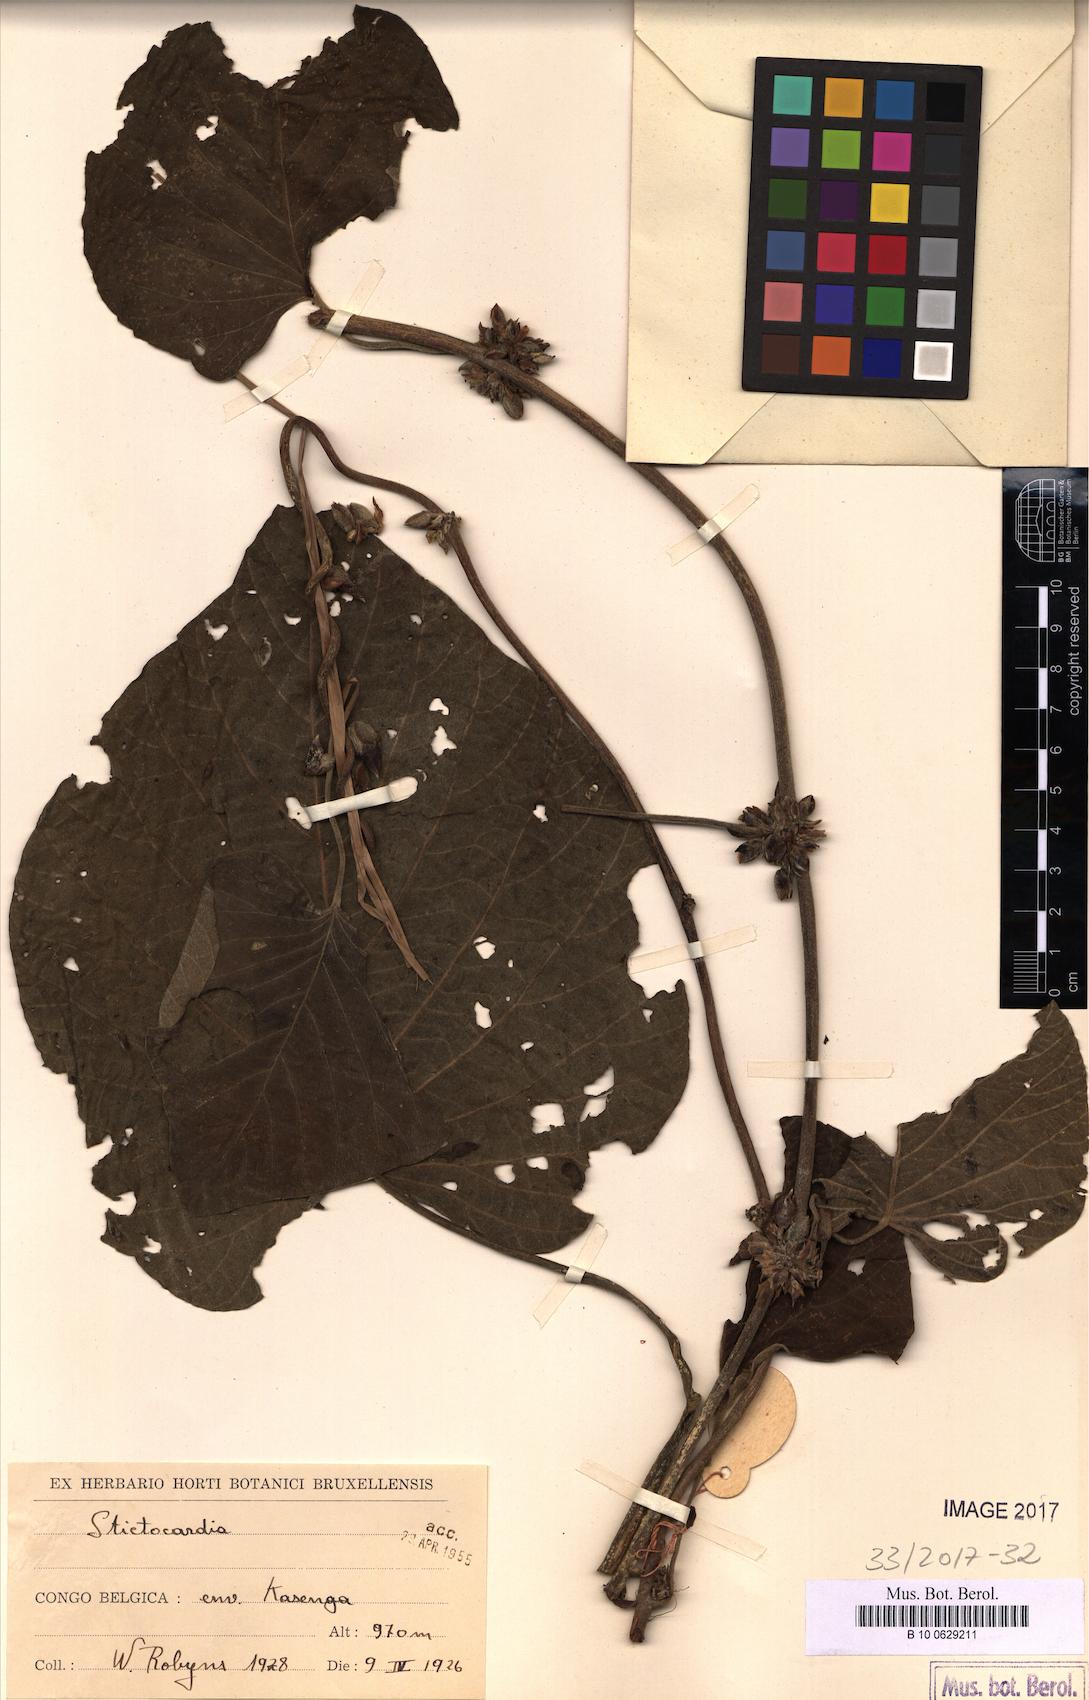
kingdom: Plantae
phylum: Tracheophyta
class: Magnoliopsida
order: Solanales
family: Convolvulaceae
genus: Stictocardia
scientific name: Stictocardia
